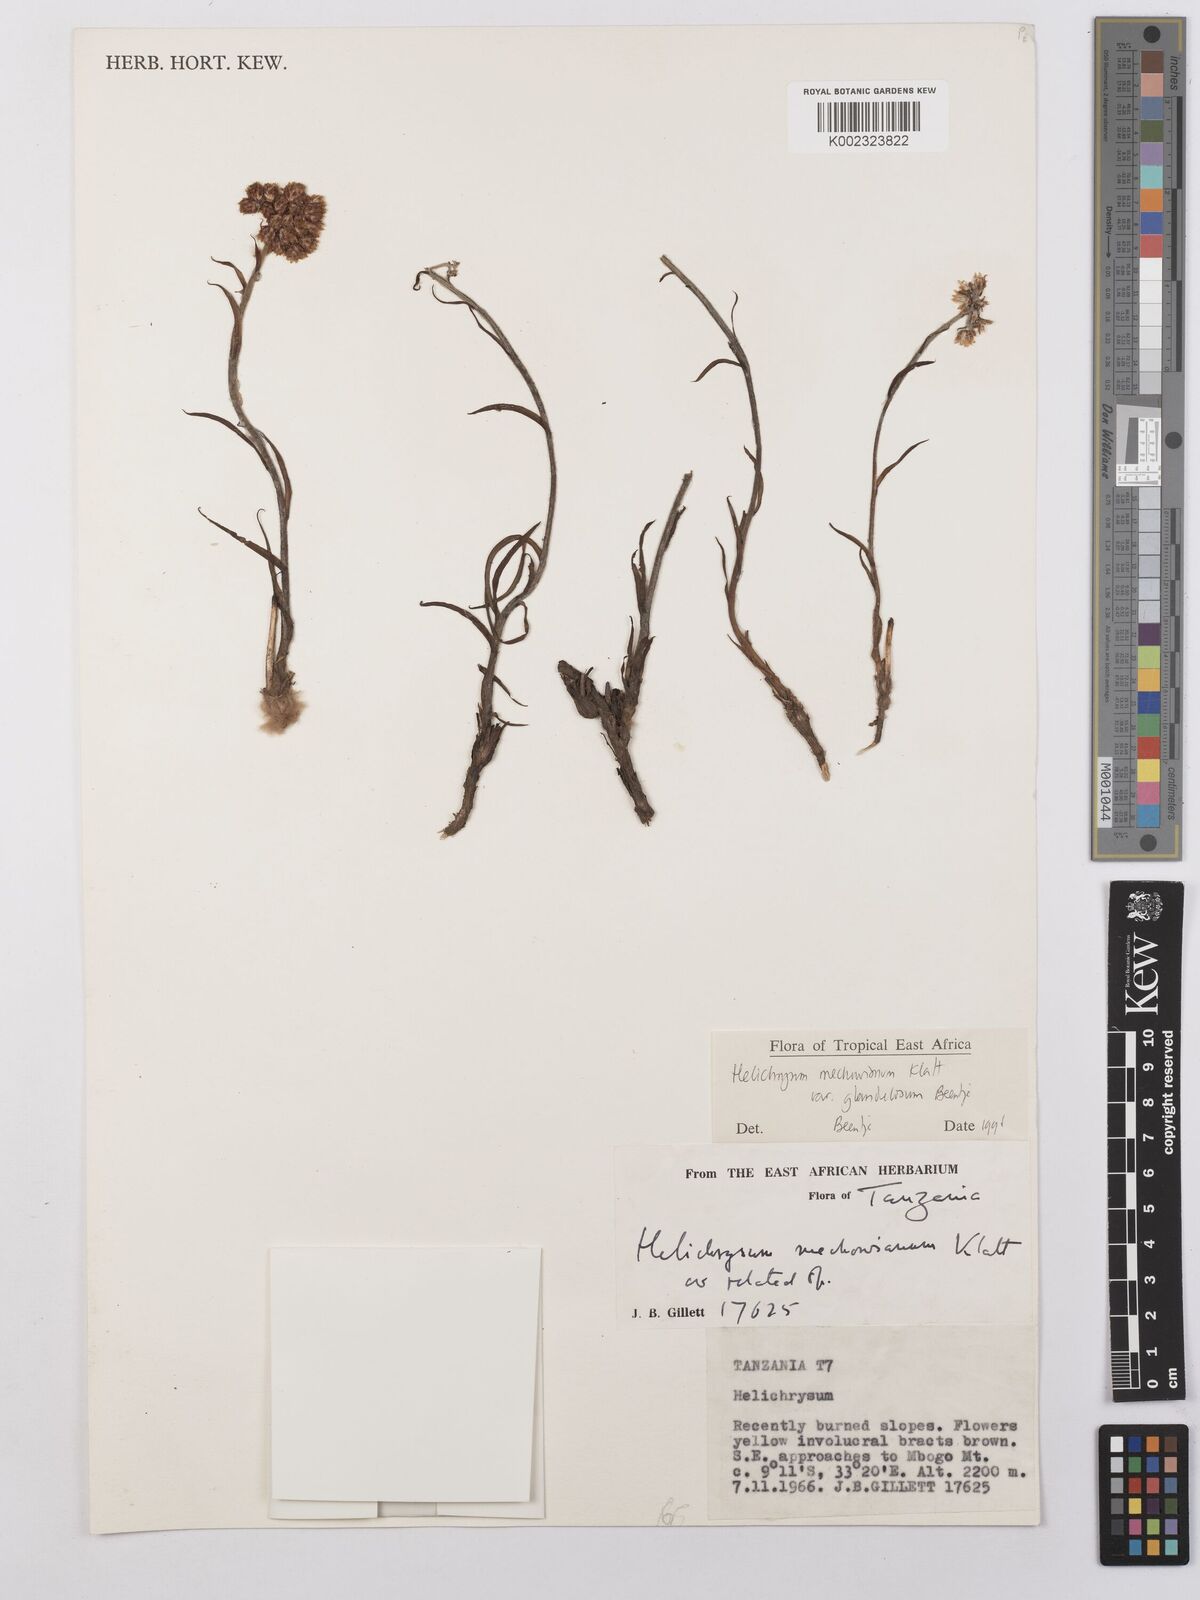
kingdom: Plantae
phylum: Tracheophyta
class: Magnoliopsida
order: Asterales
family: Asteraceae
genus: Helichrysum
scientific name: Helichrysum mechowianum
